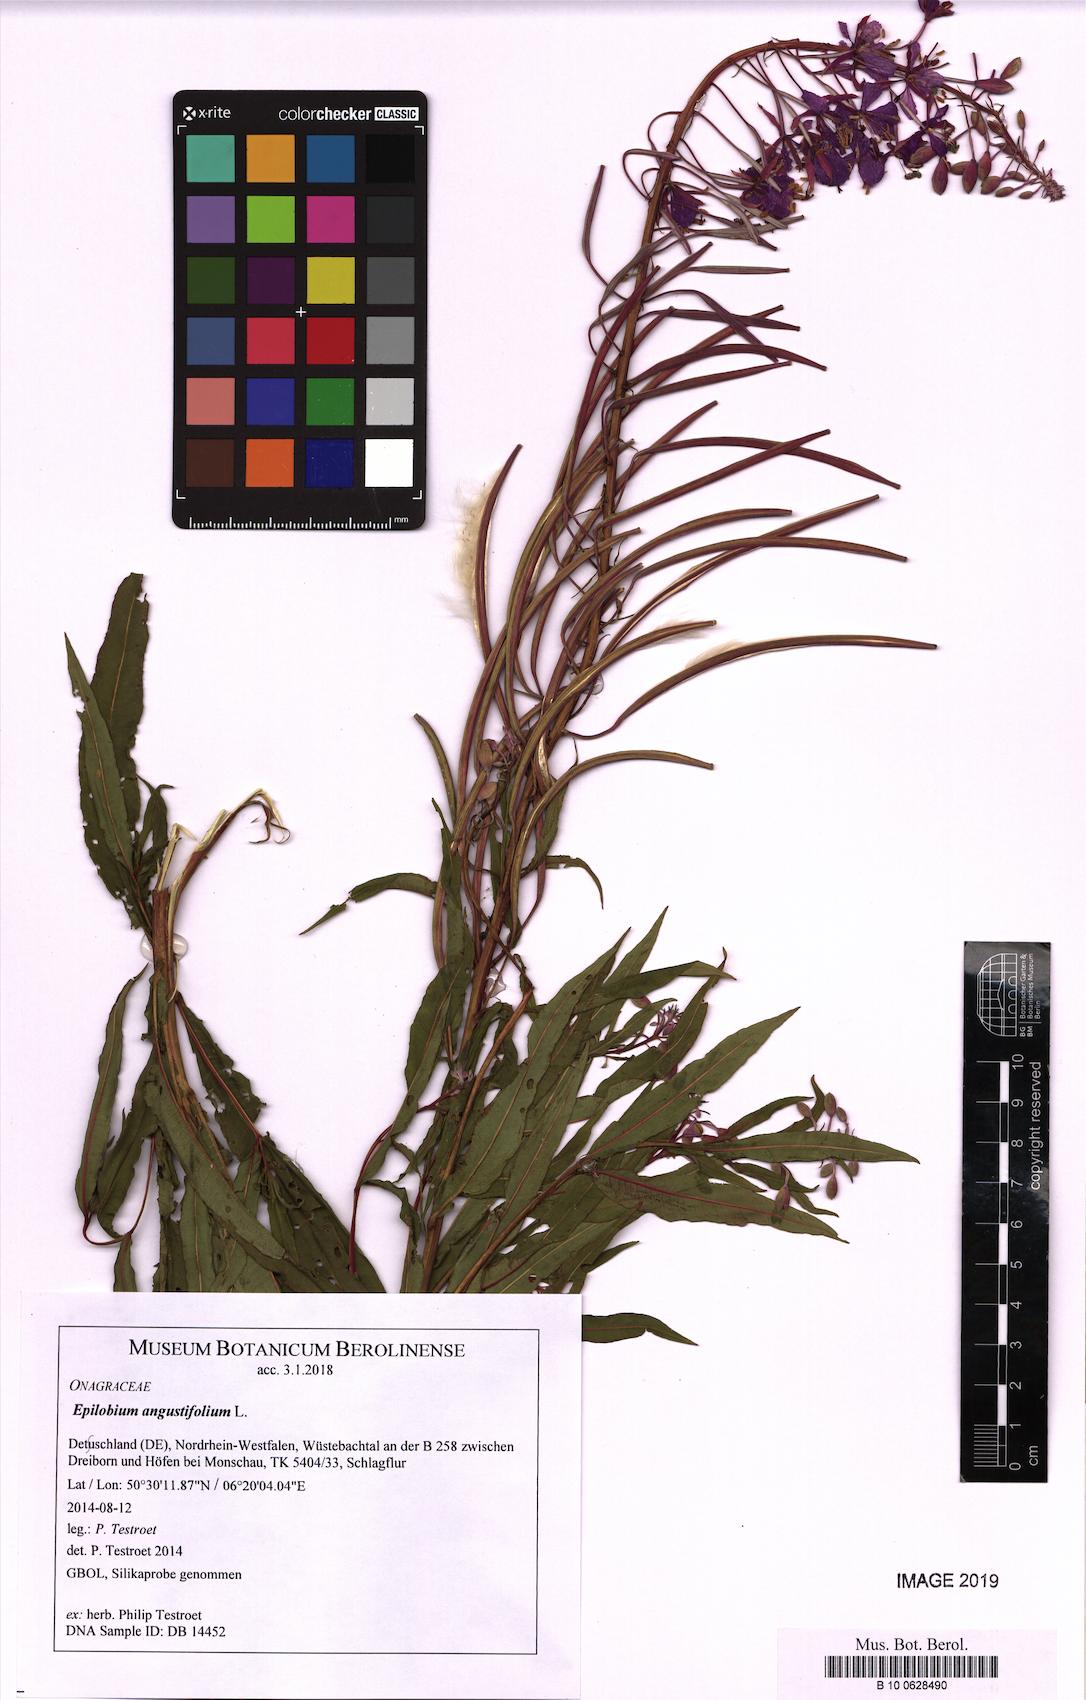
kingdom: Plantae
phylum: Tracheophyta
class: Magnoliopsida
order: Myrtales
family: Onagraceae
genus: Chamaenerion
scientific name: Chamaenerion angustifolium
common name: Fireweed
